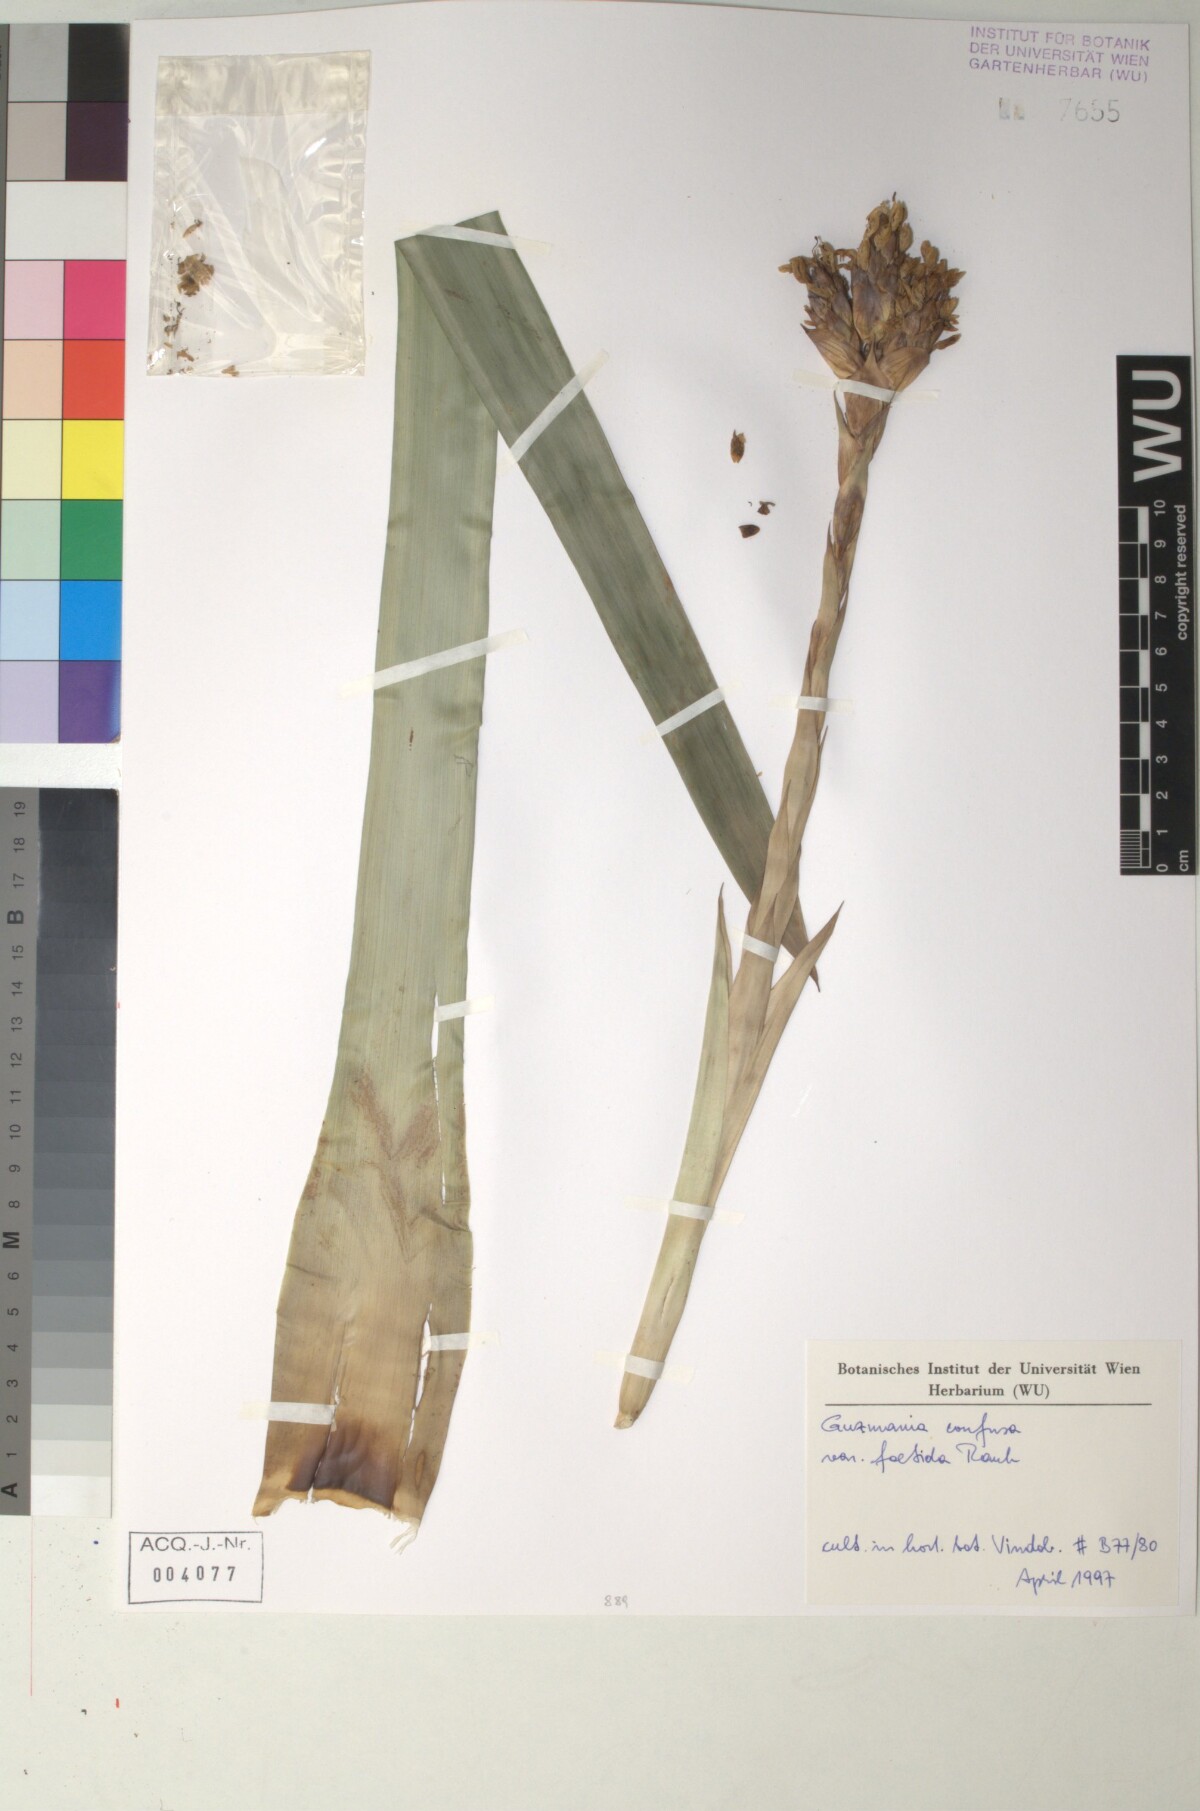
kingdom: Plantae
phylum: Tracheophyta
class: Liliopsida
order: Poales
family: Bromeliaceae
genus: Guzmania
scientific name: Guzmania confusa
